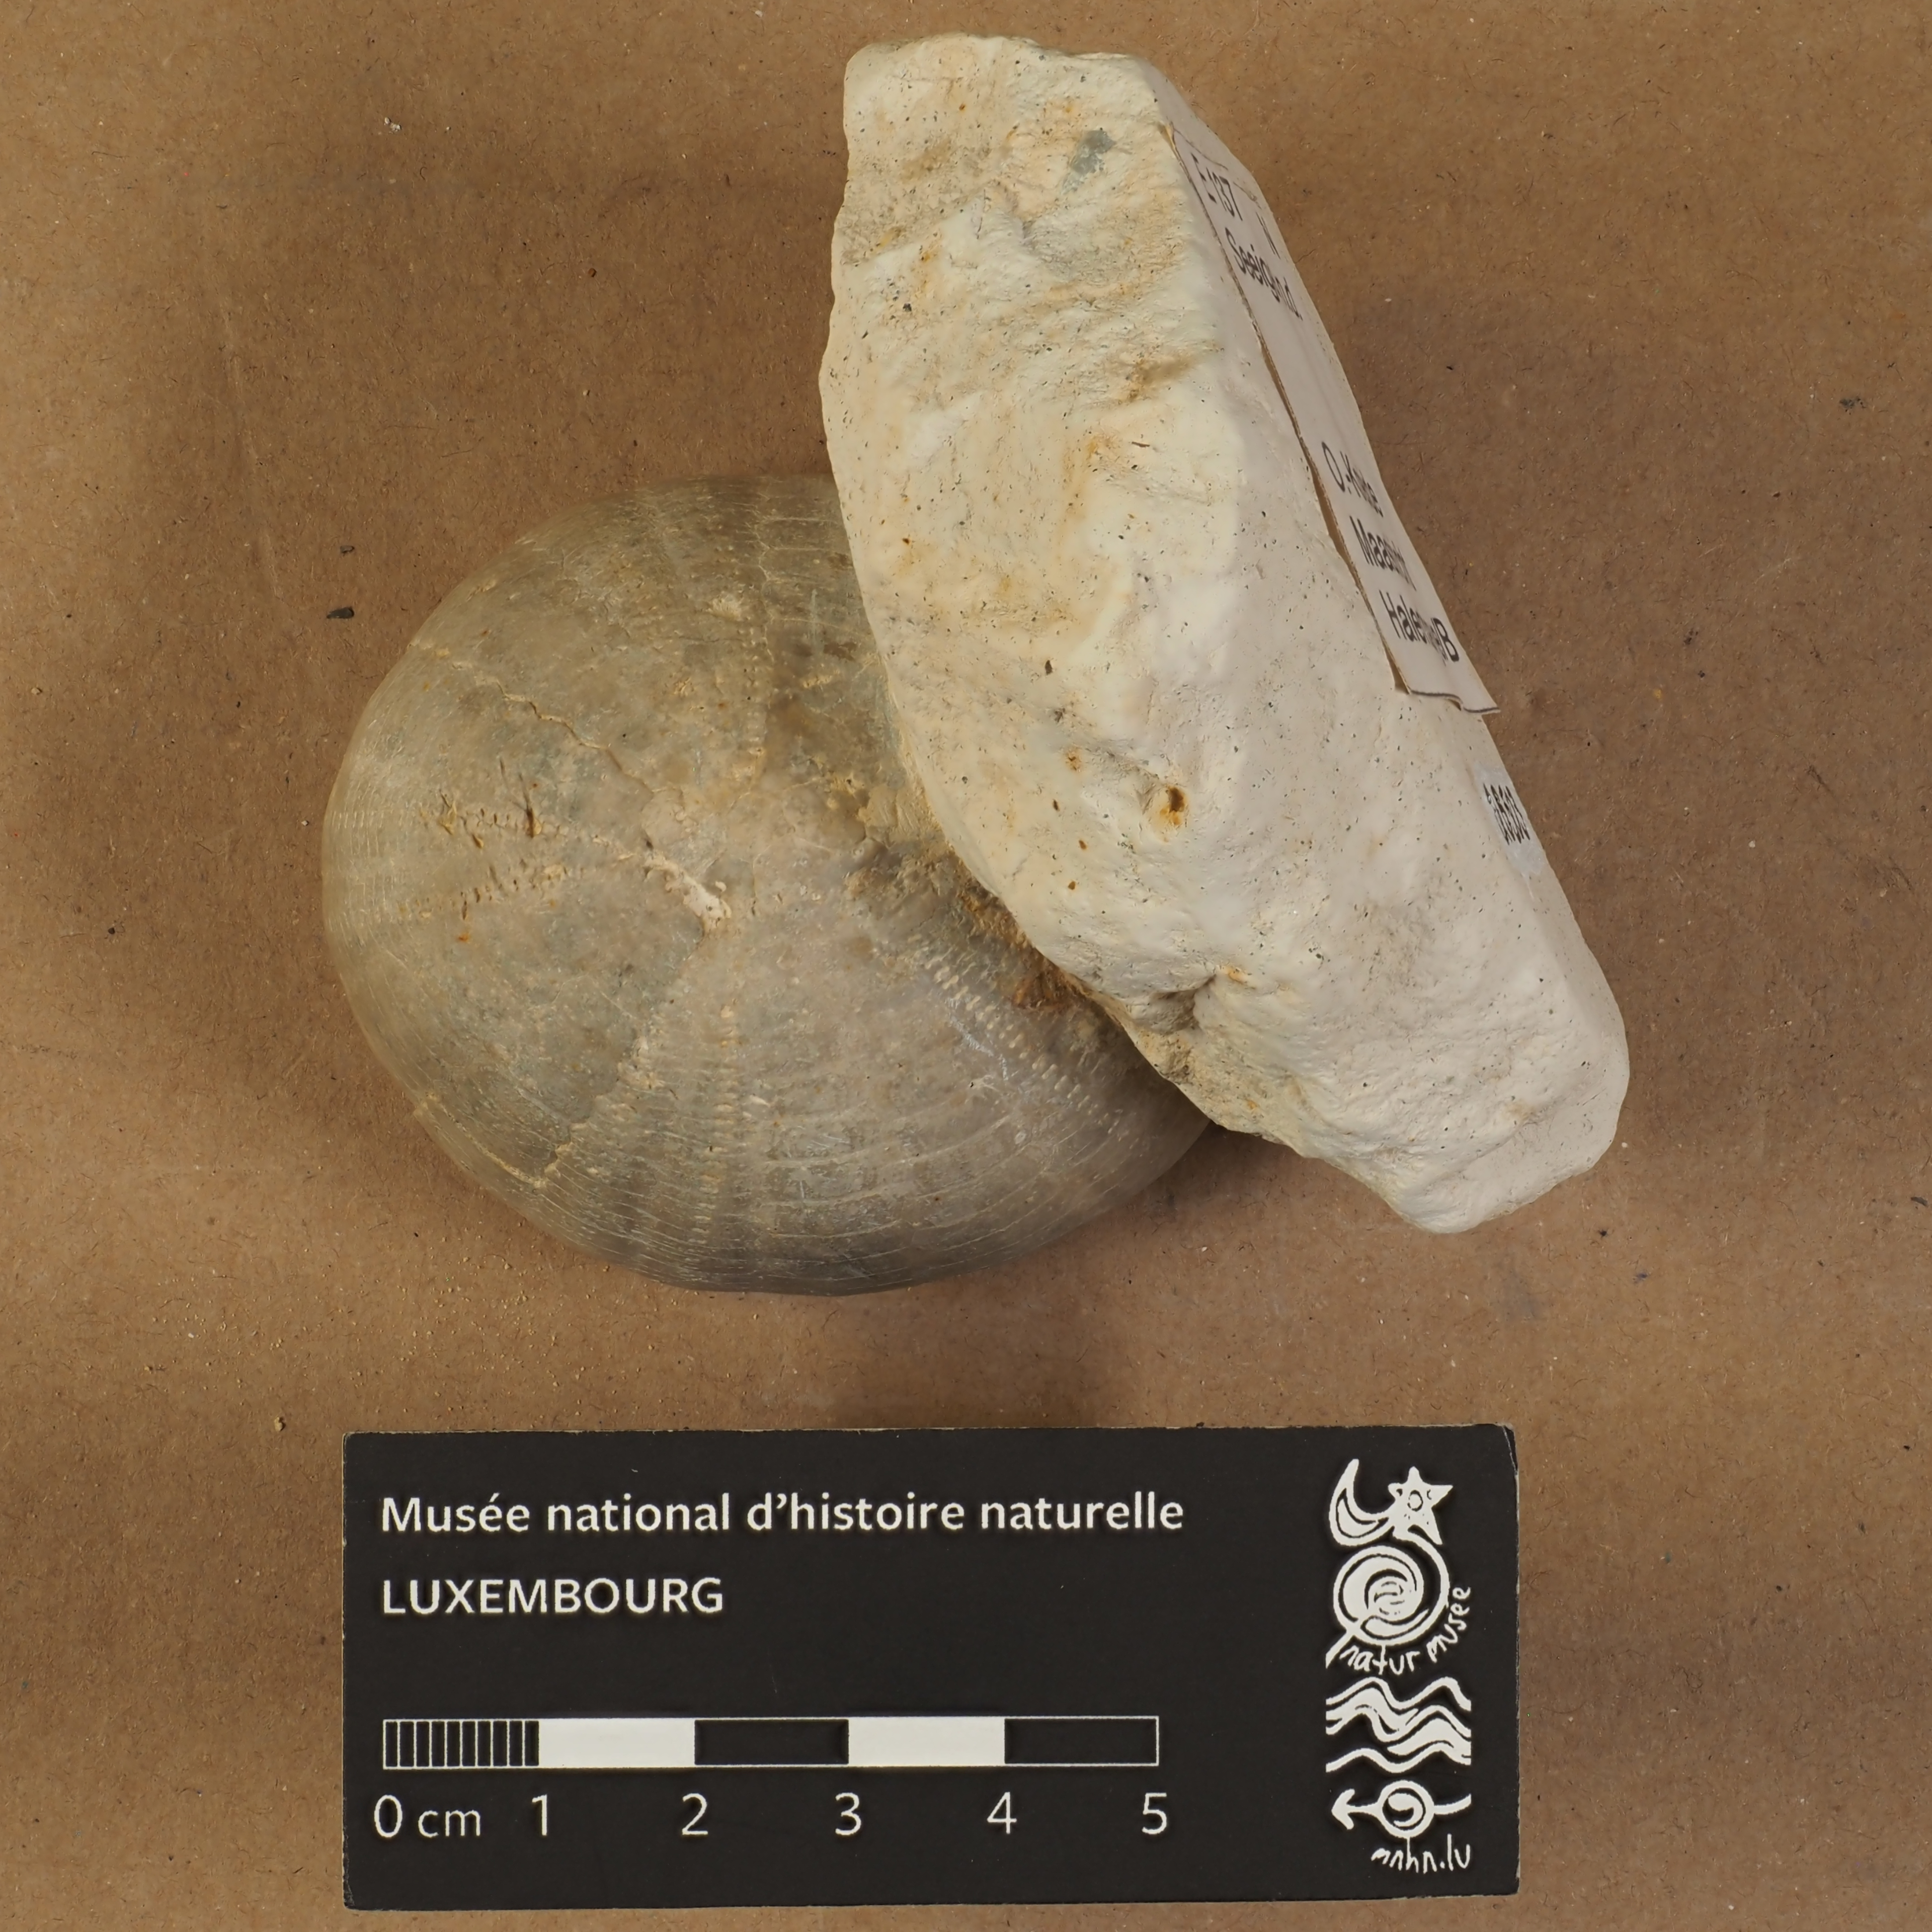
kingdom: Animalia
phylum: Echinodermata
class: Echinoidea
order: Holasteroida
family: Echinocorythidae
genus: Echinocorys
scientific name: Echinocorys
